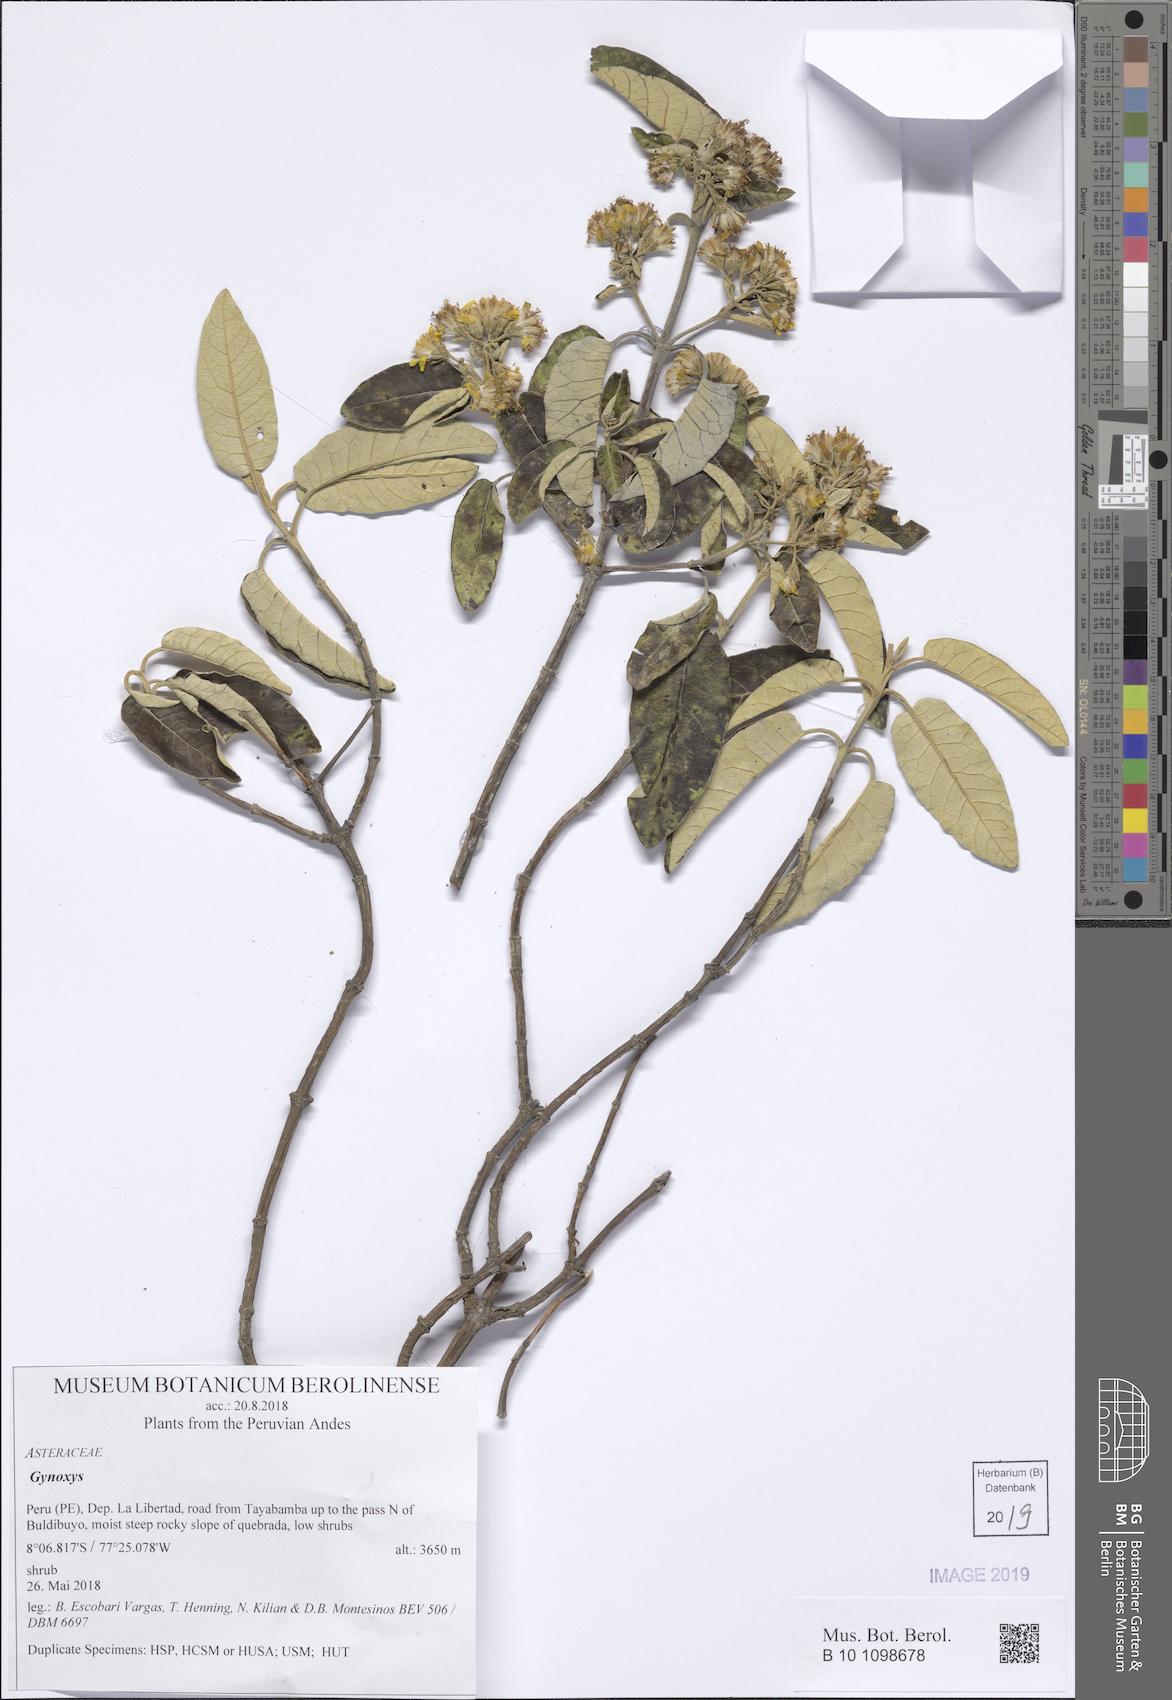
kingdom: Plantae
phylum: Tracheophyta
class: Magnoliopsida
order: Asterales
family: Asteraceae
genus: Gynoxys
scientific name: Gynoxys
